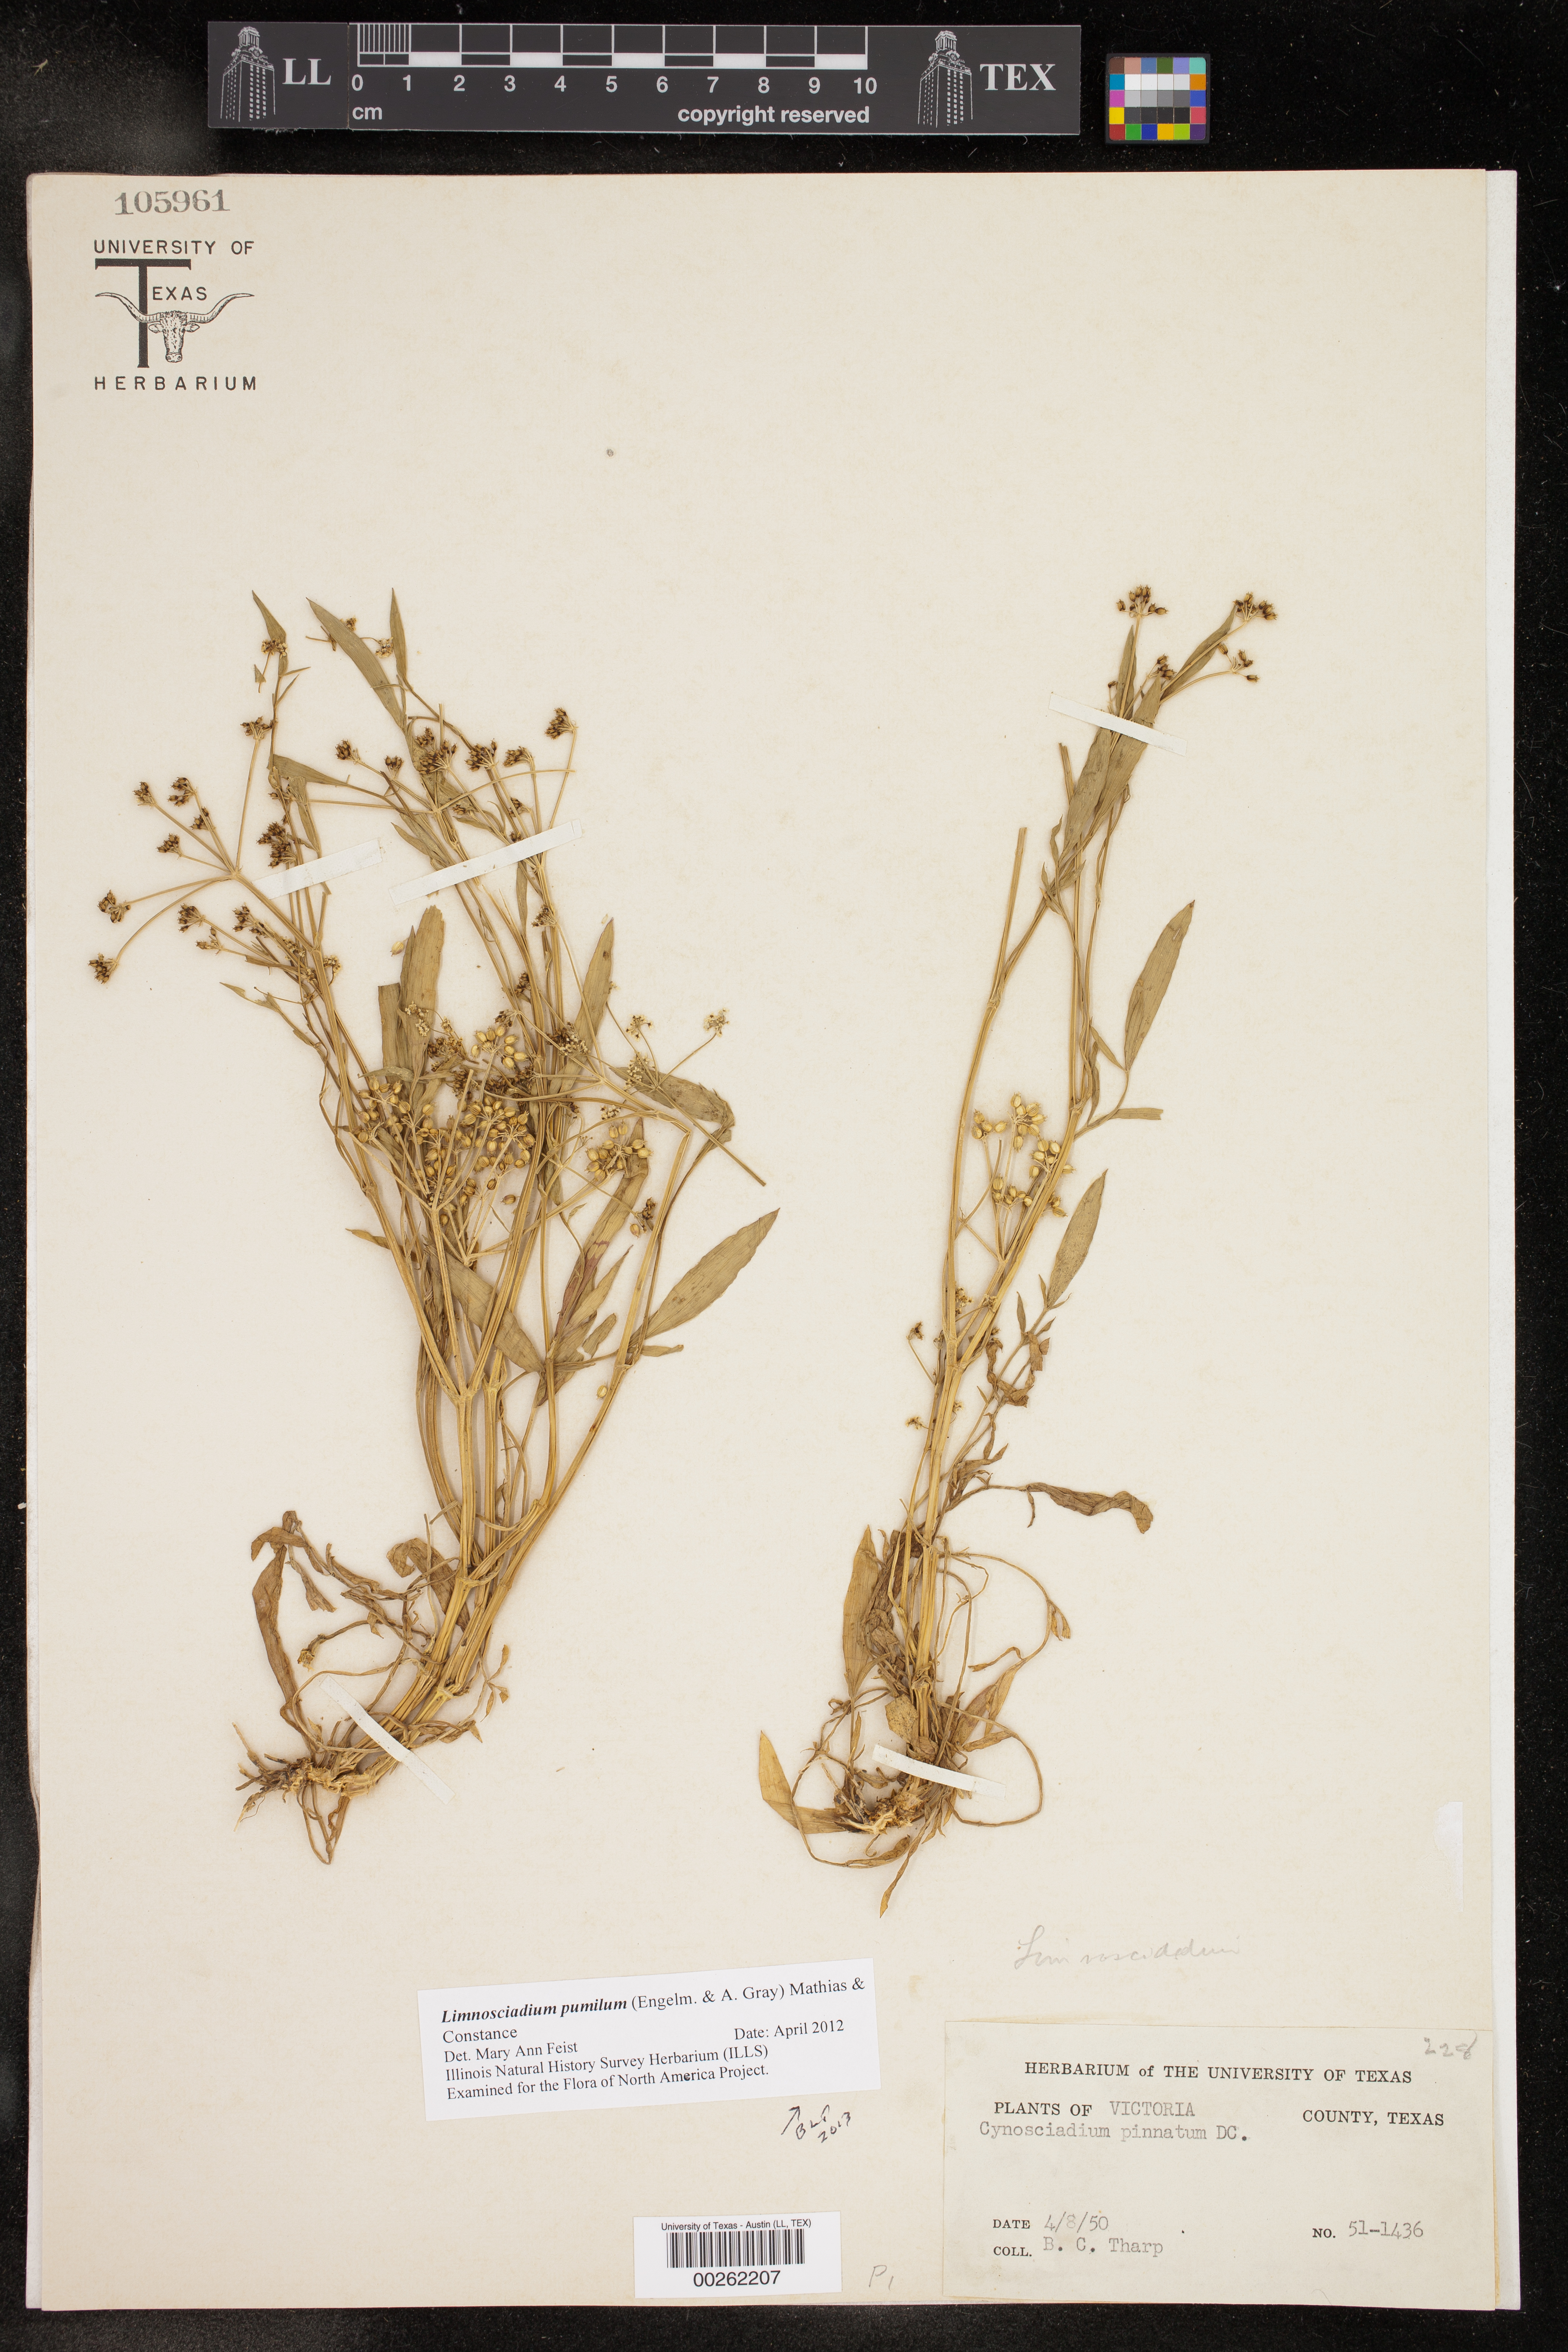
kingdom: Plantae
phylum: Tracheophyta
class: Magnoliopsida
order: Apiales
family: Apiaceae
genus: Limnosciadium
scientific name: Limnosciadium pinnatum
